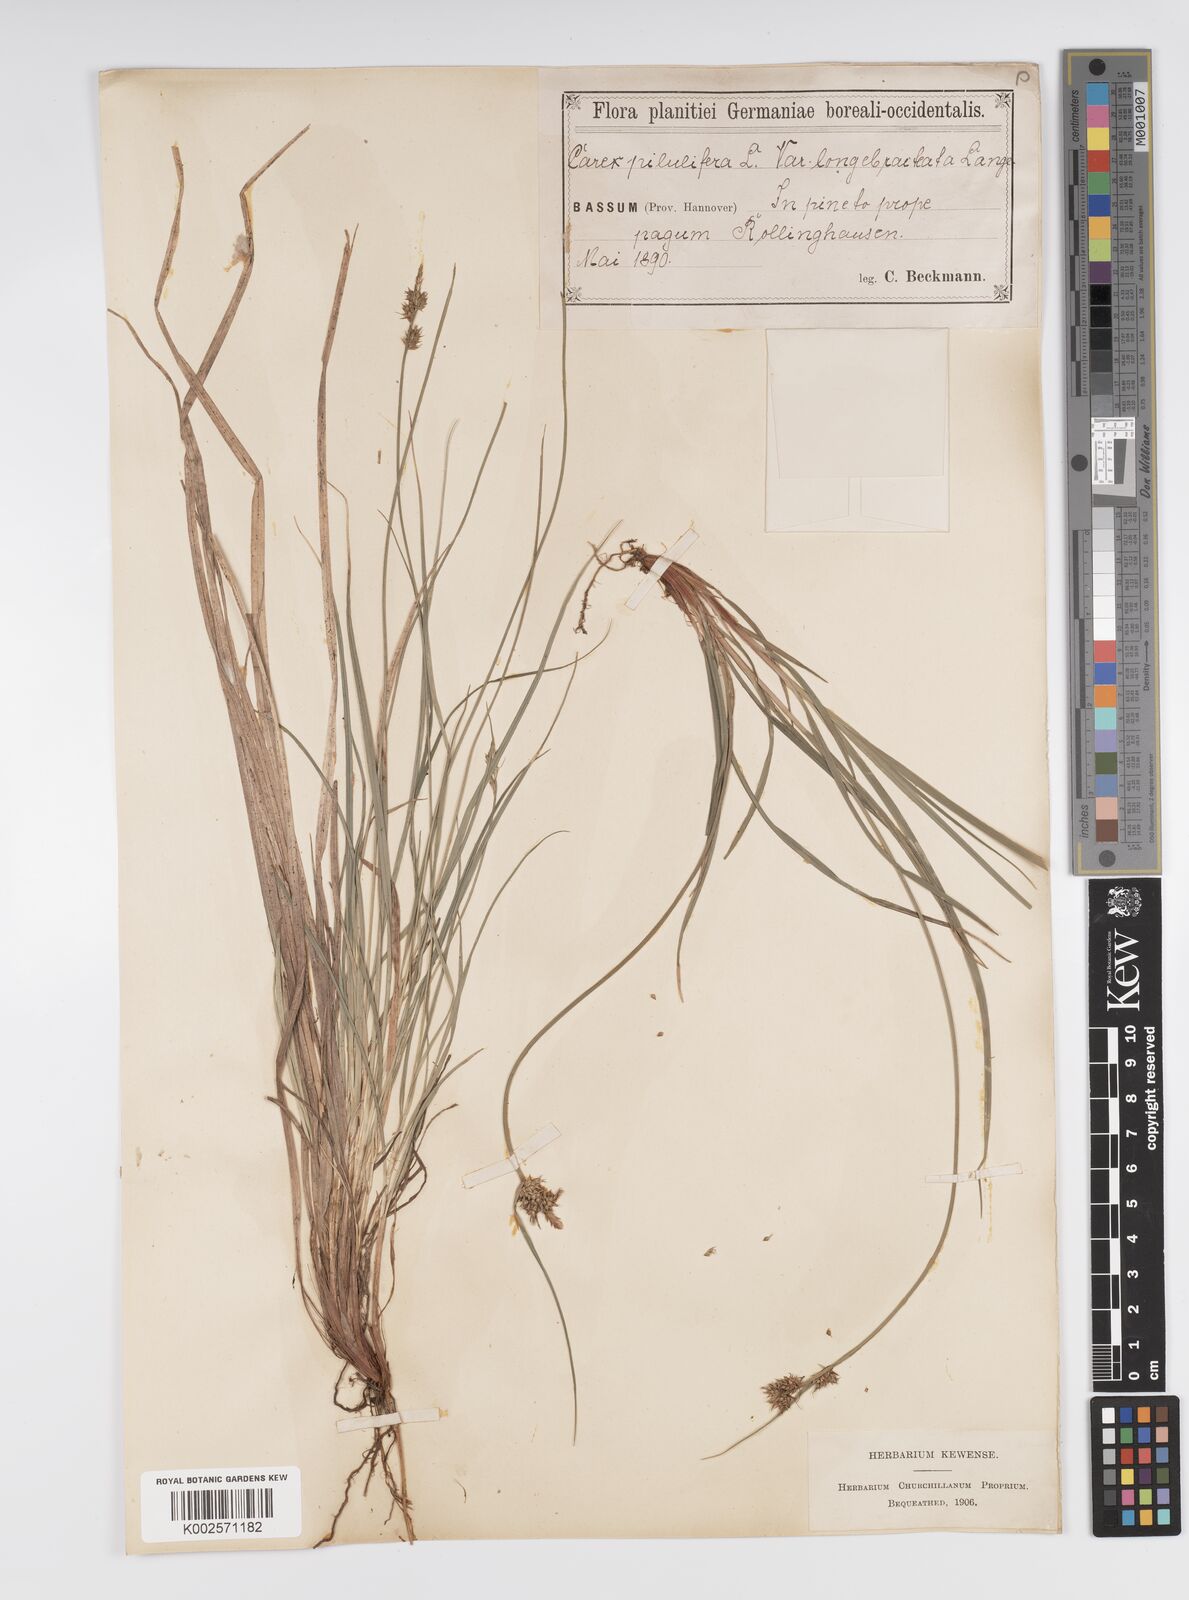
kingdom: Plantae
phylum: Tracheophyta
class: Liliopsida
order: Poales
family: Cyperaceae
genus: Carex
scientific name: Carex pilulifera
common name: Pill sedge
